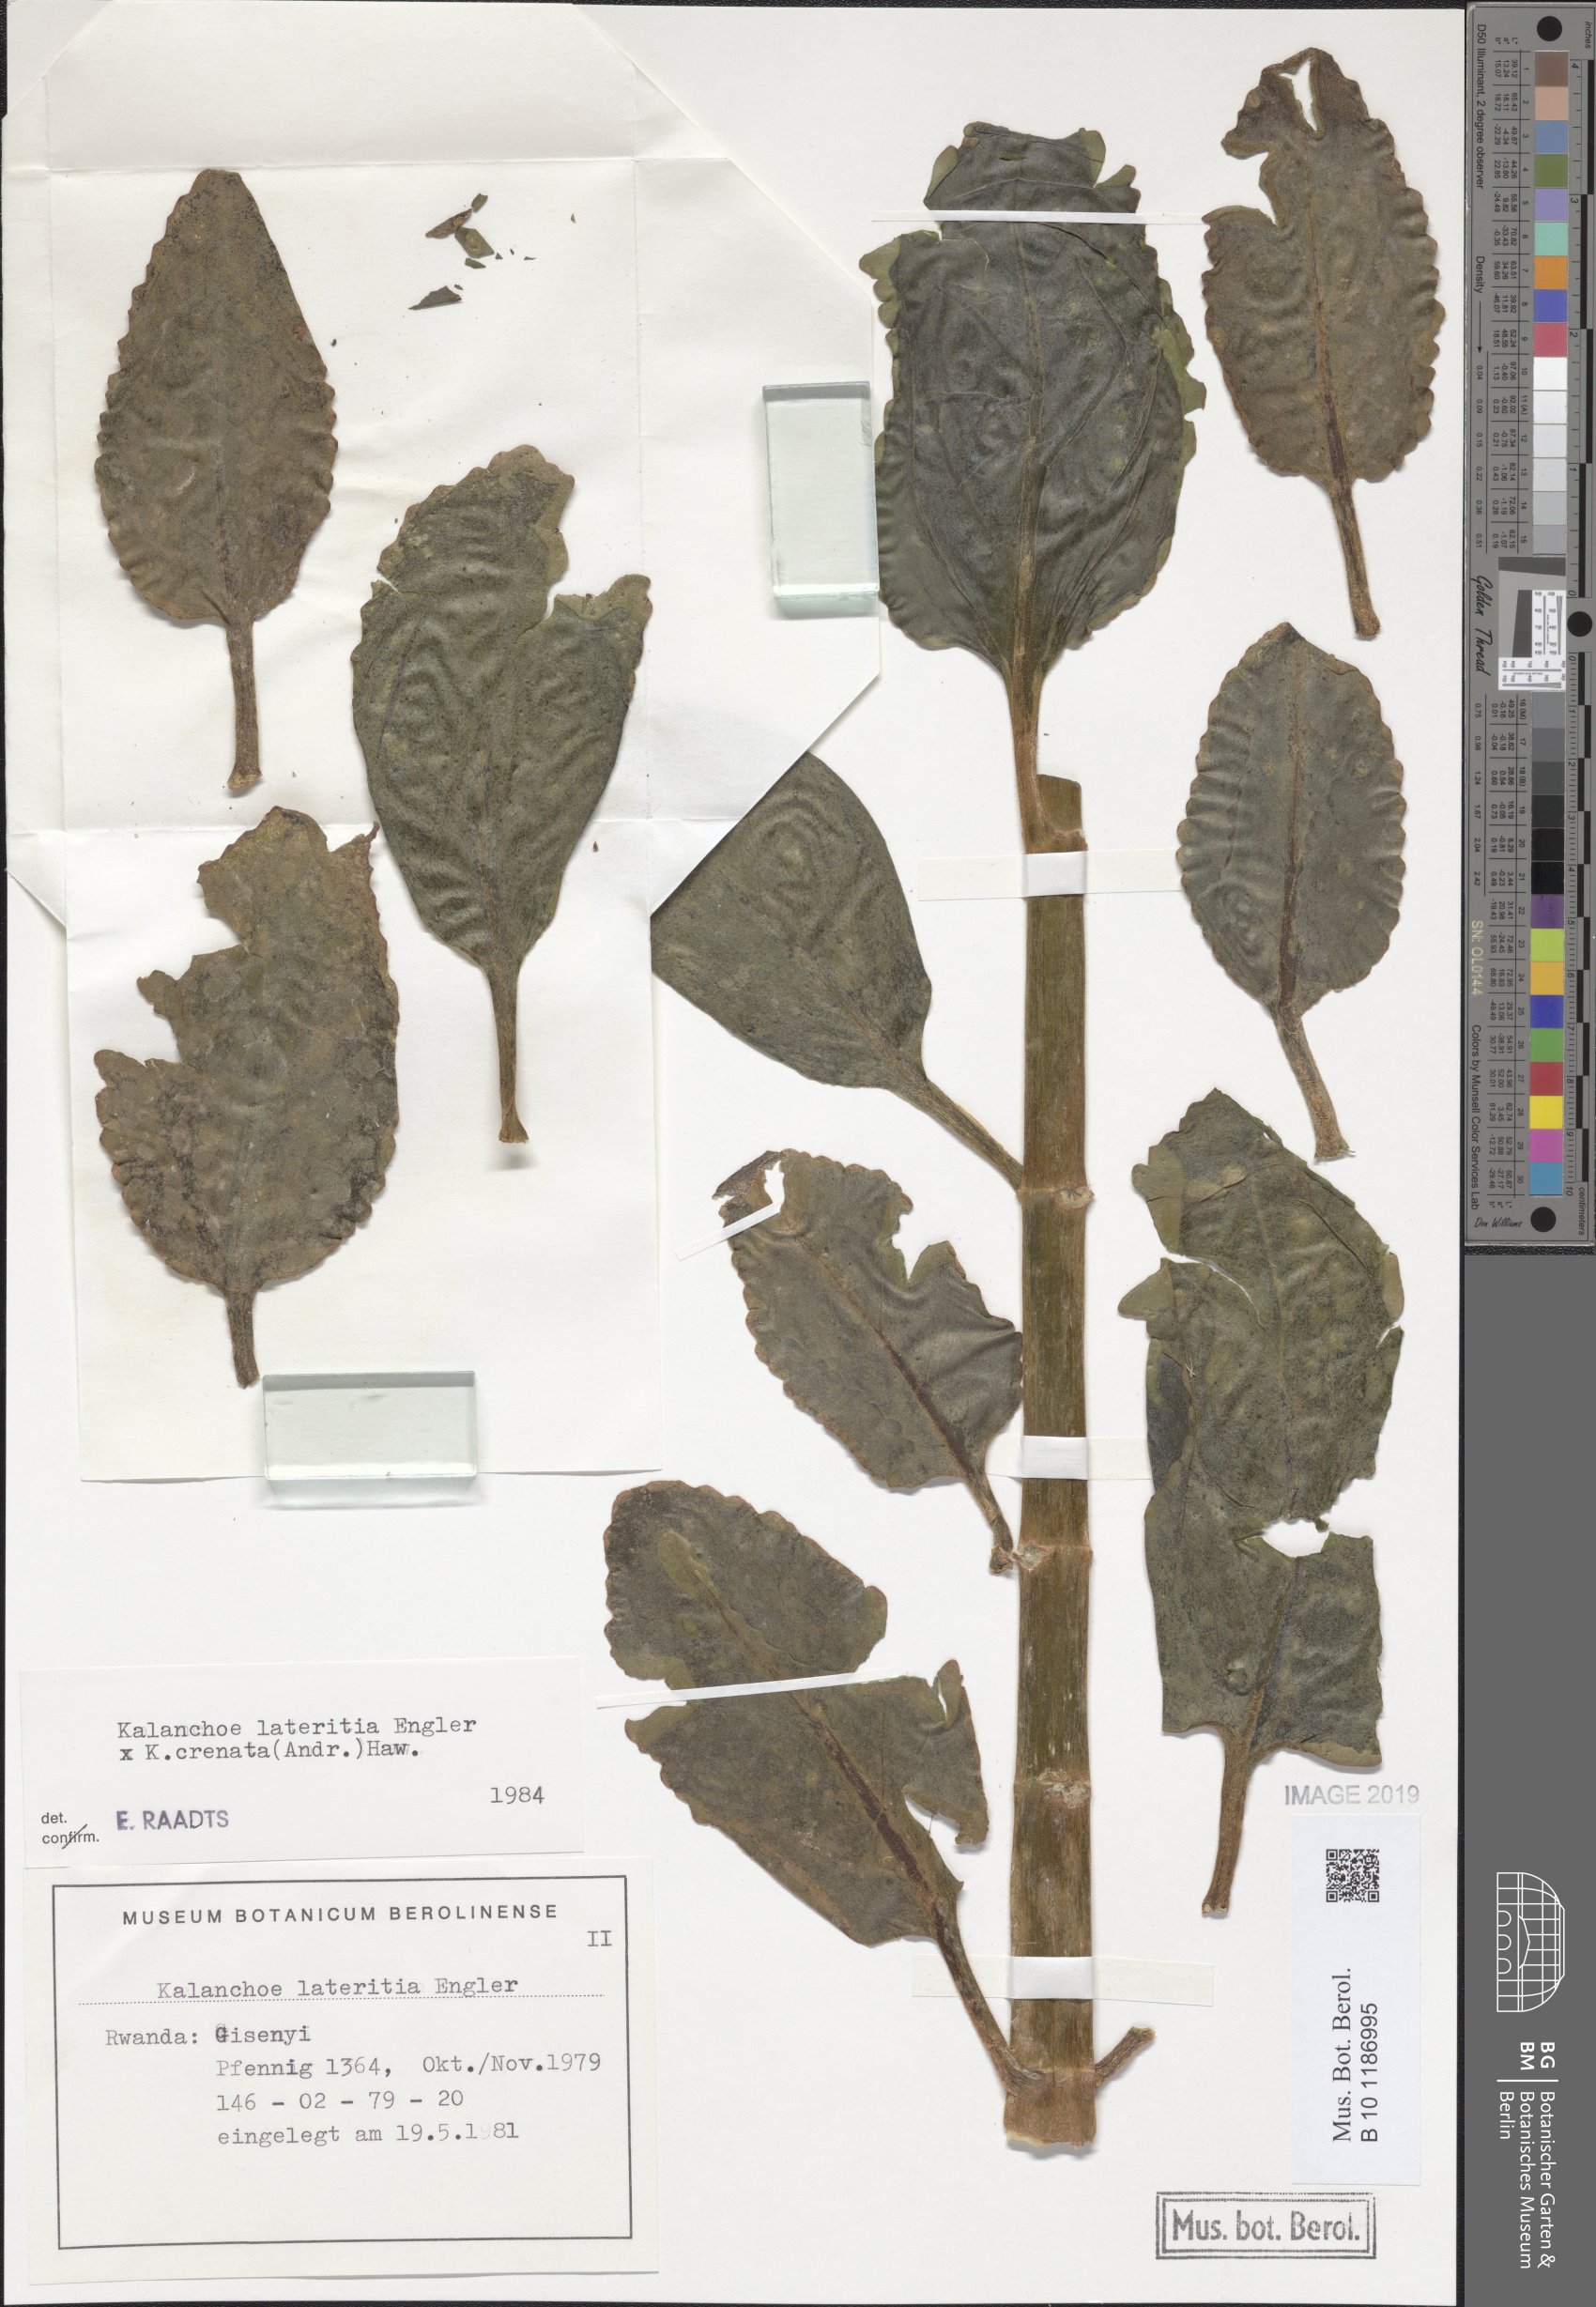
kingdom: Plantae
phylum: Tracheophyta
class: Magnoliopsida
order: Saxifragales
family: Crassulaceae
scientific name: Crassulaceae
